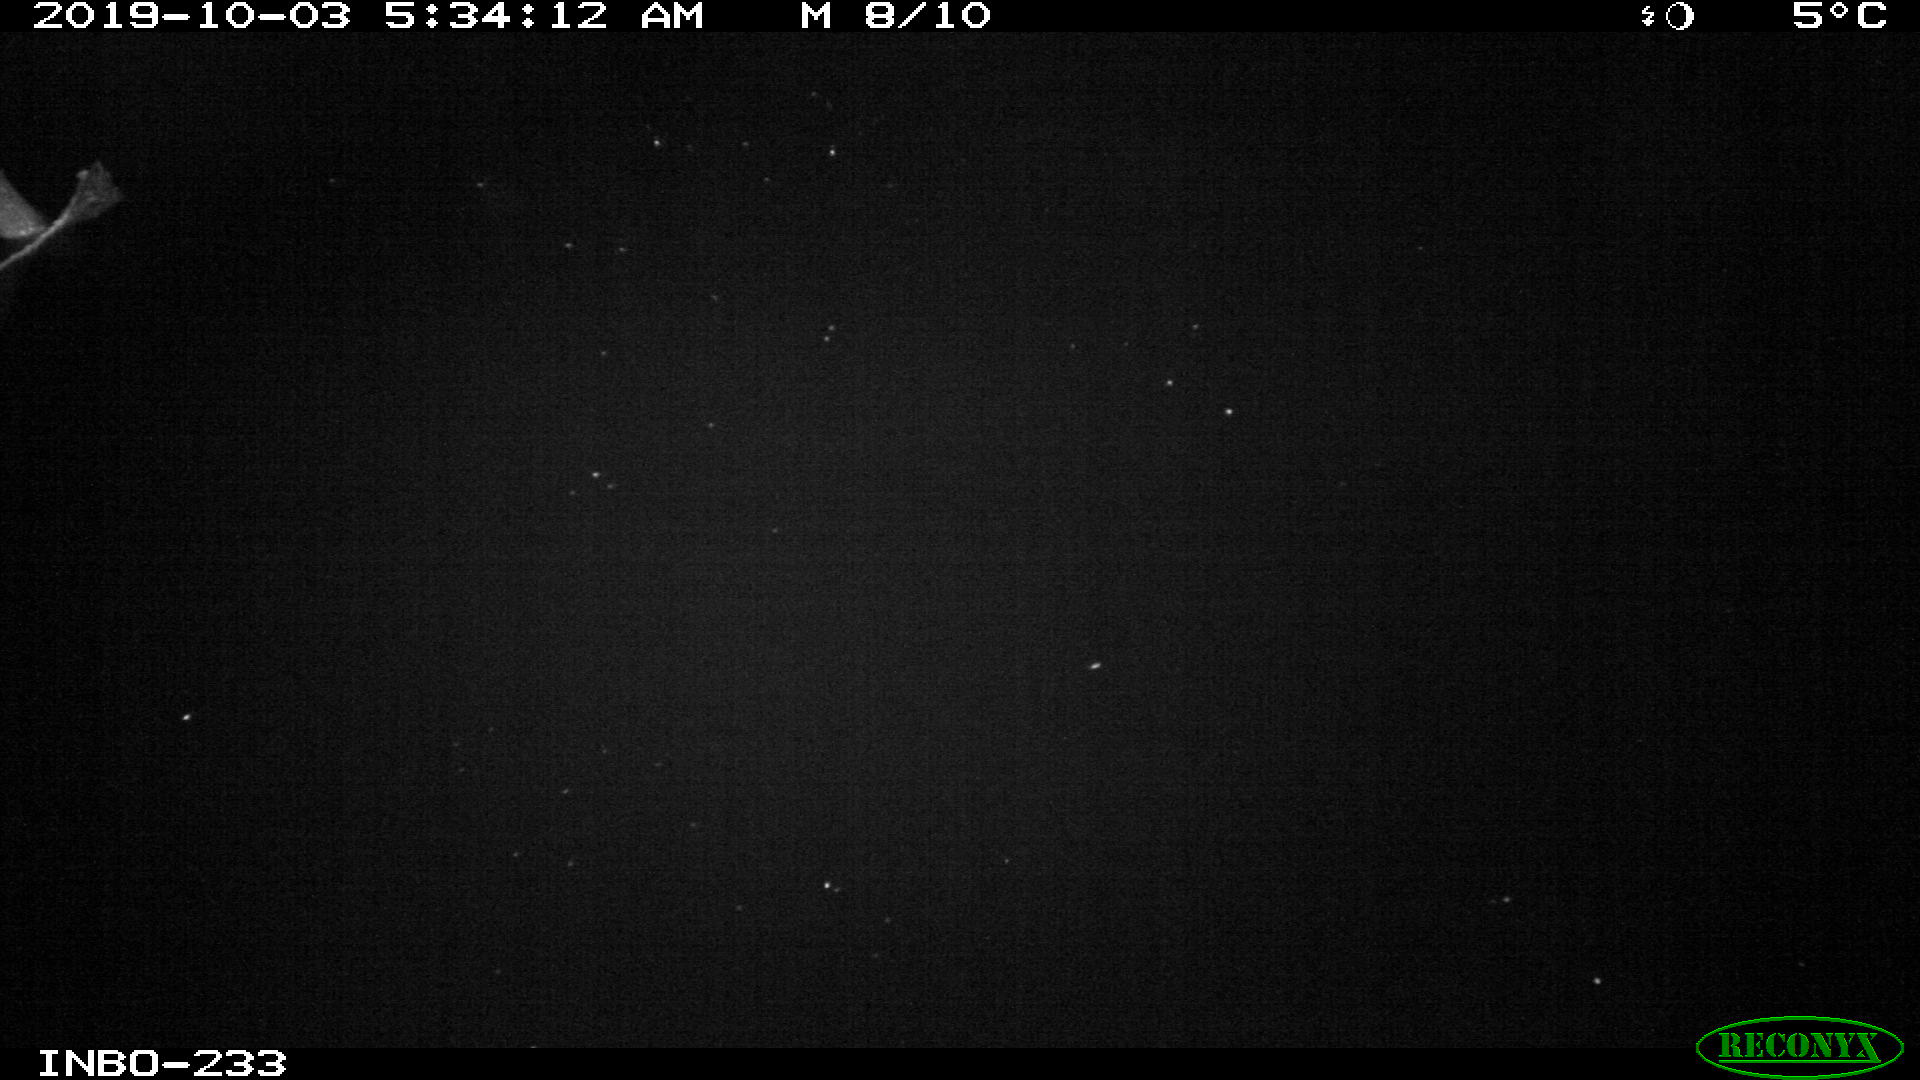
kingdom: Animalia
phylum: Chordata
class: Aves
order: Anseriformes
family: Anatidae
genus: Anas
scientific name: Anas platyrhynchos
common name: Mallard
